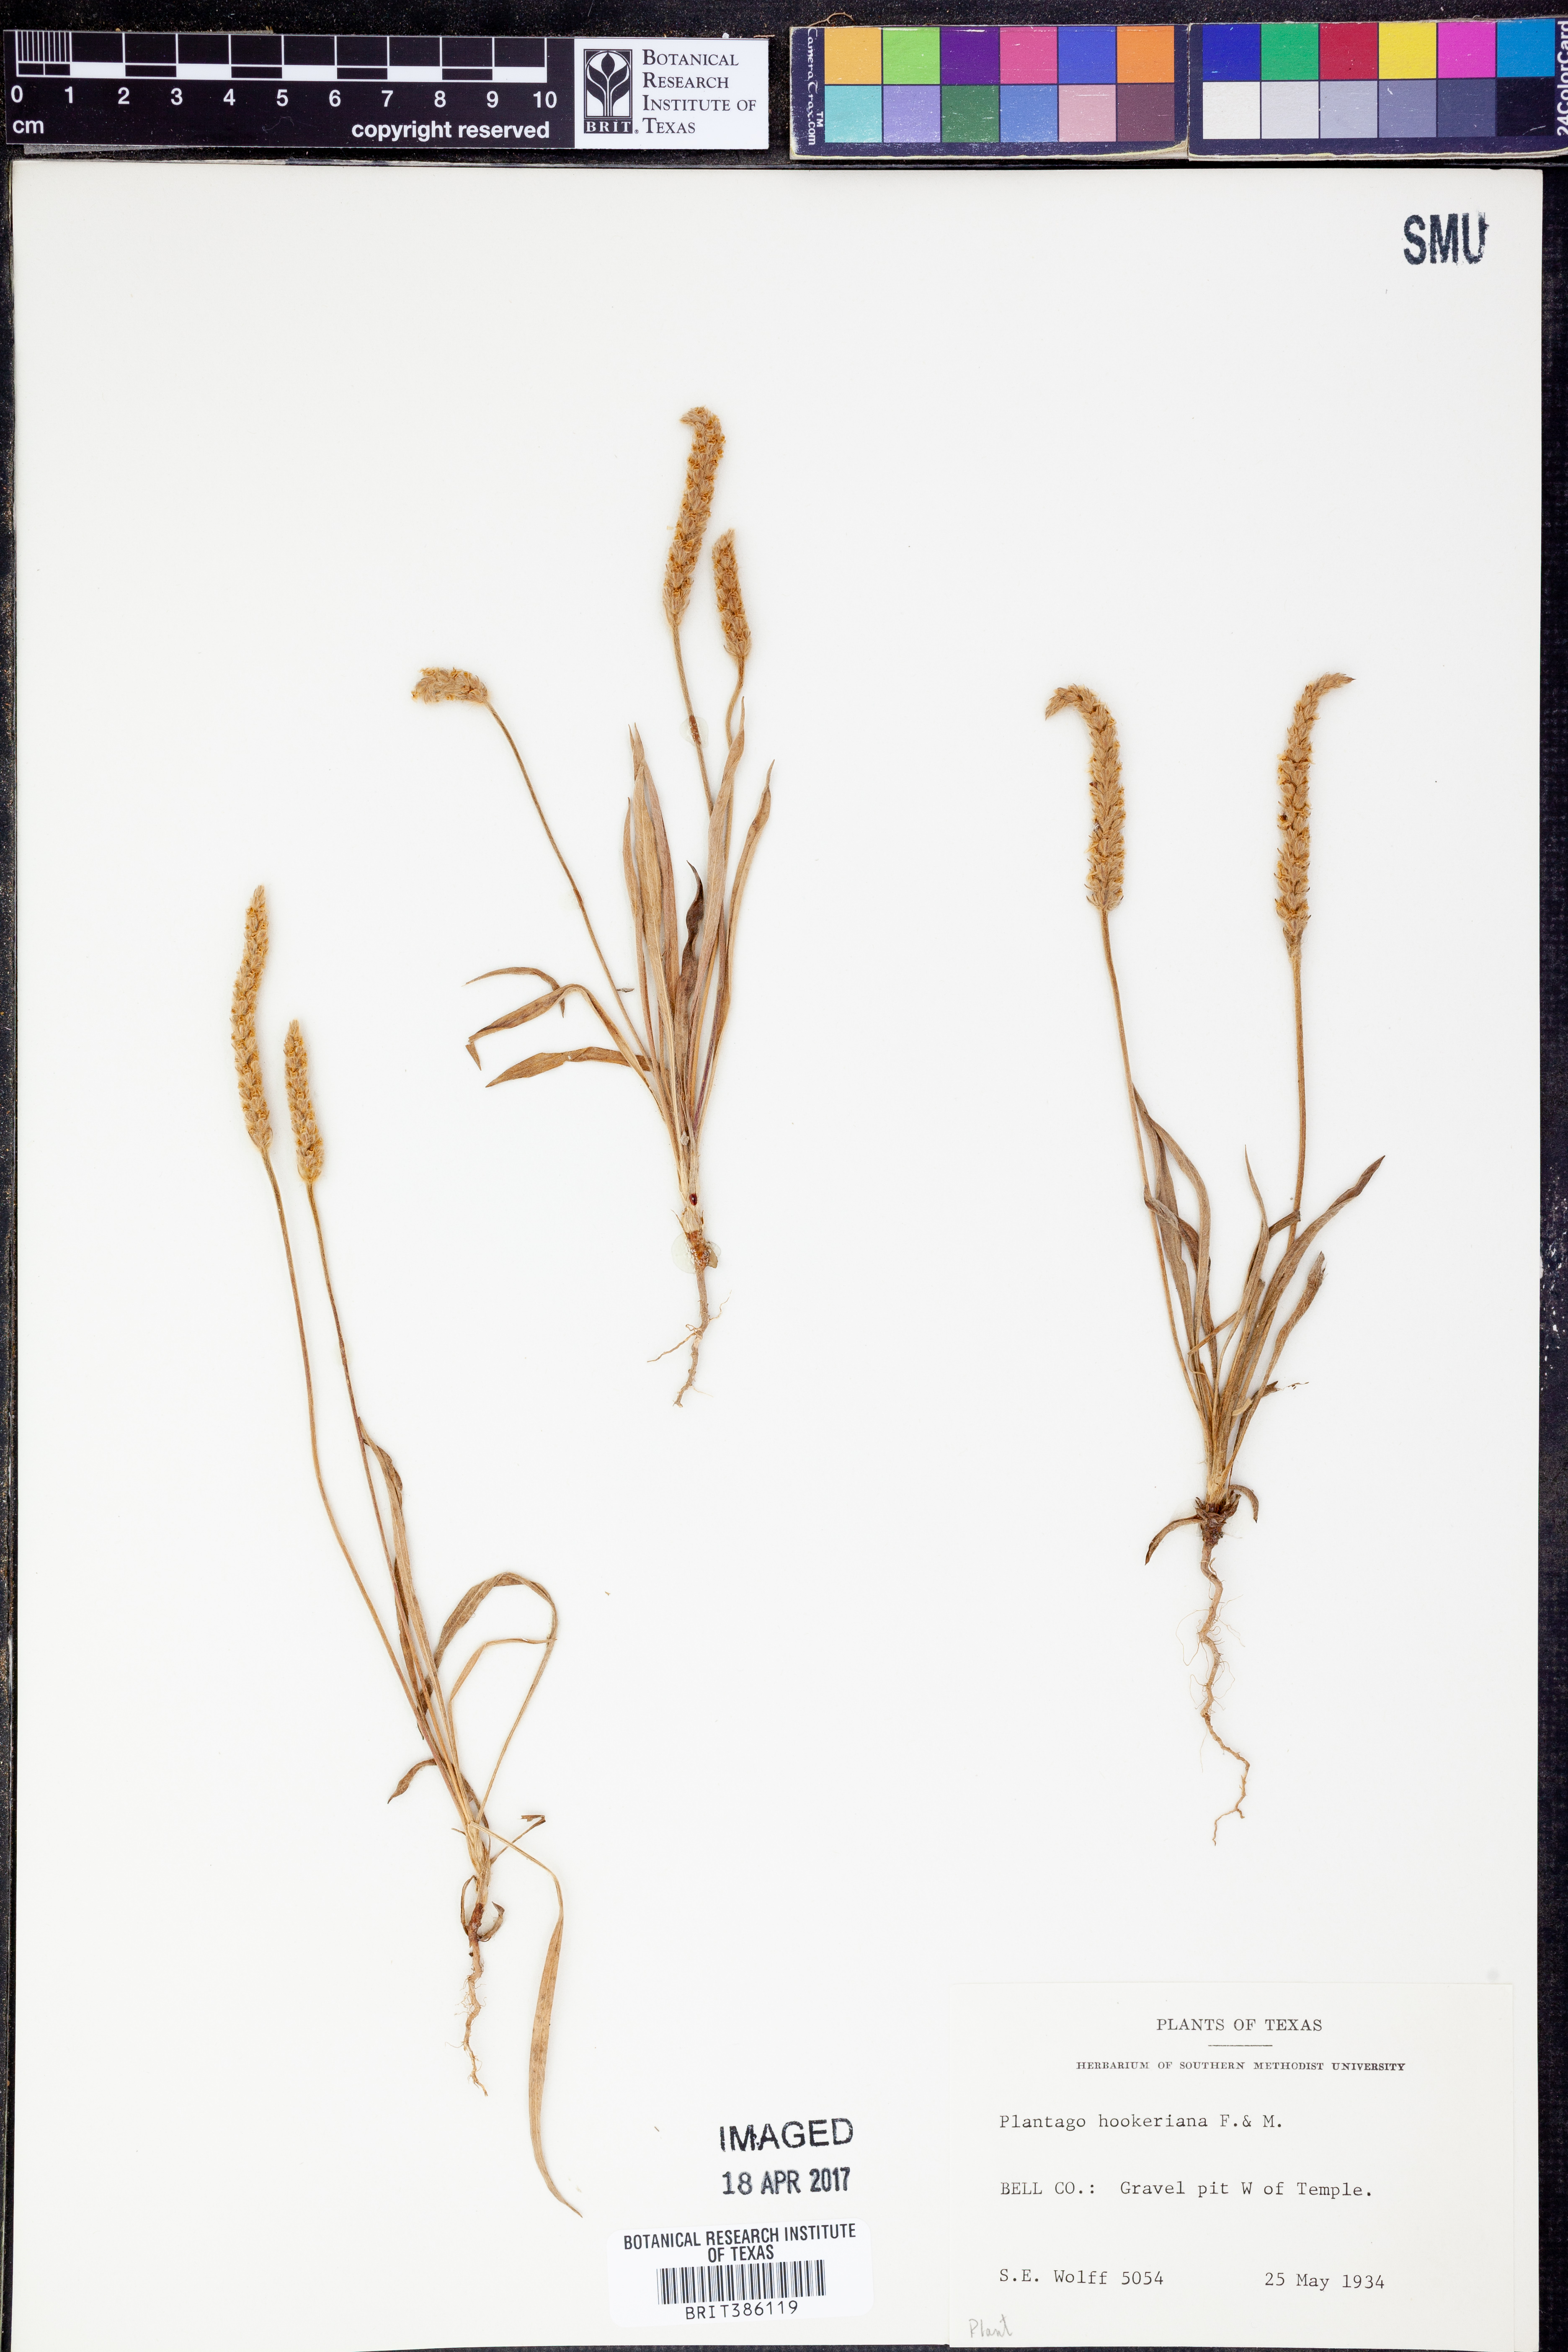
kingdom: Plantae
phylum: Tracheophyta
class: Magnoliopsida
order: Lamiales
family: Plantaginaceae
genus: Plantago
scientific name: Plantago hookeriana
